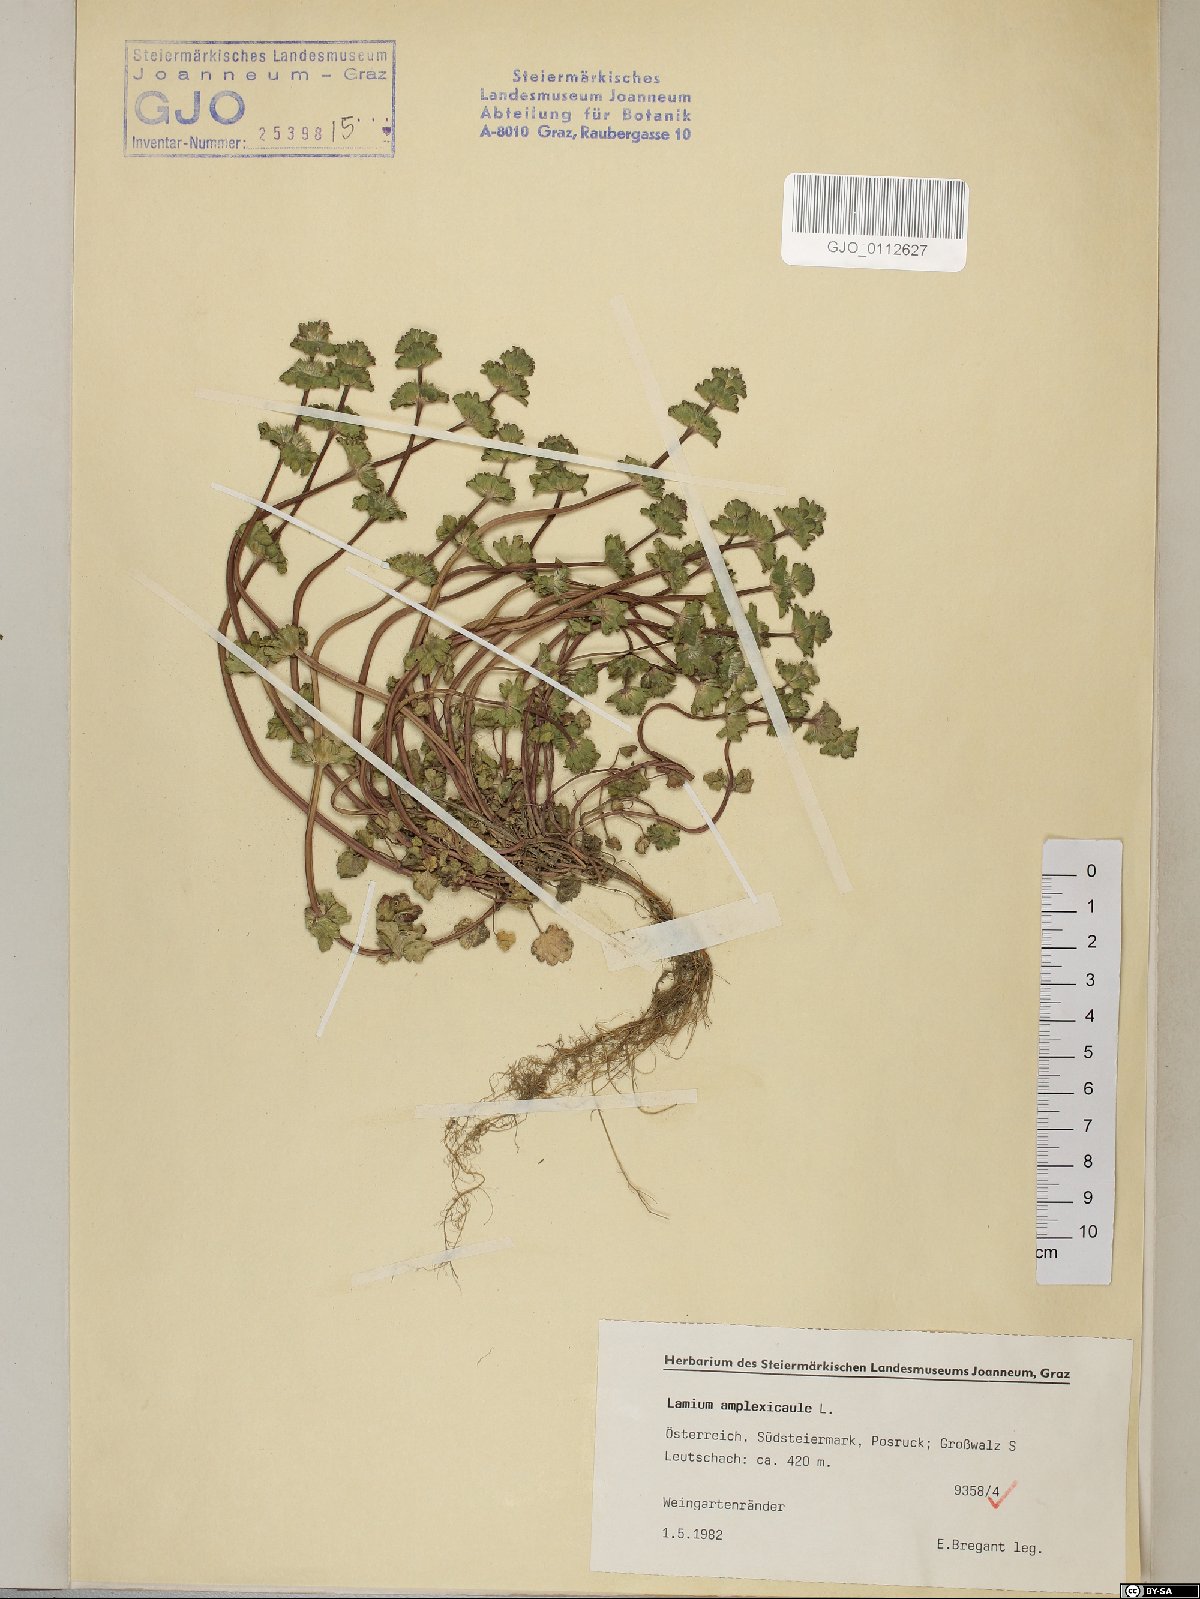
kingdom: Plantae
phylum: Tracheophyta
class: Magnoliopsida
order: Lamiales
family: Lamiaceae
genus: Lamium
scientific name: Lamium amplexicaule
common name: Henbit dead-nettle
